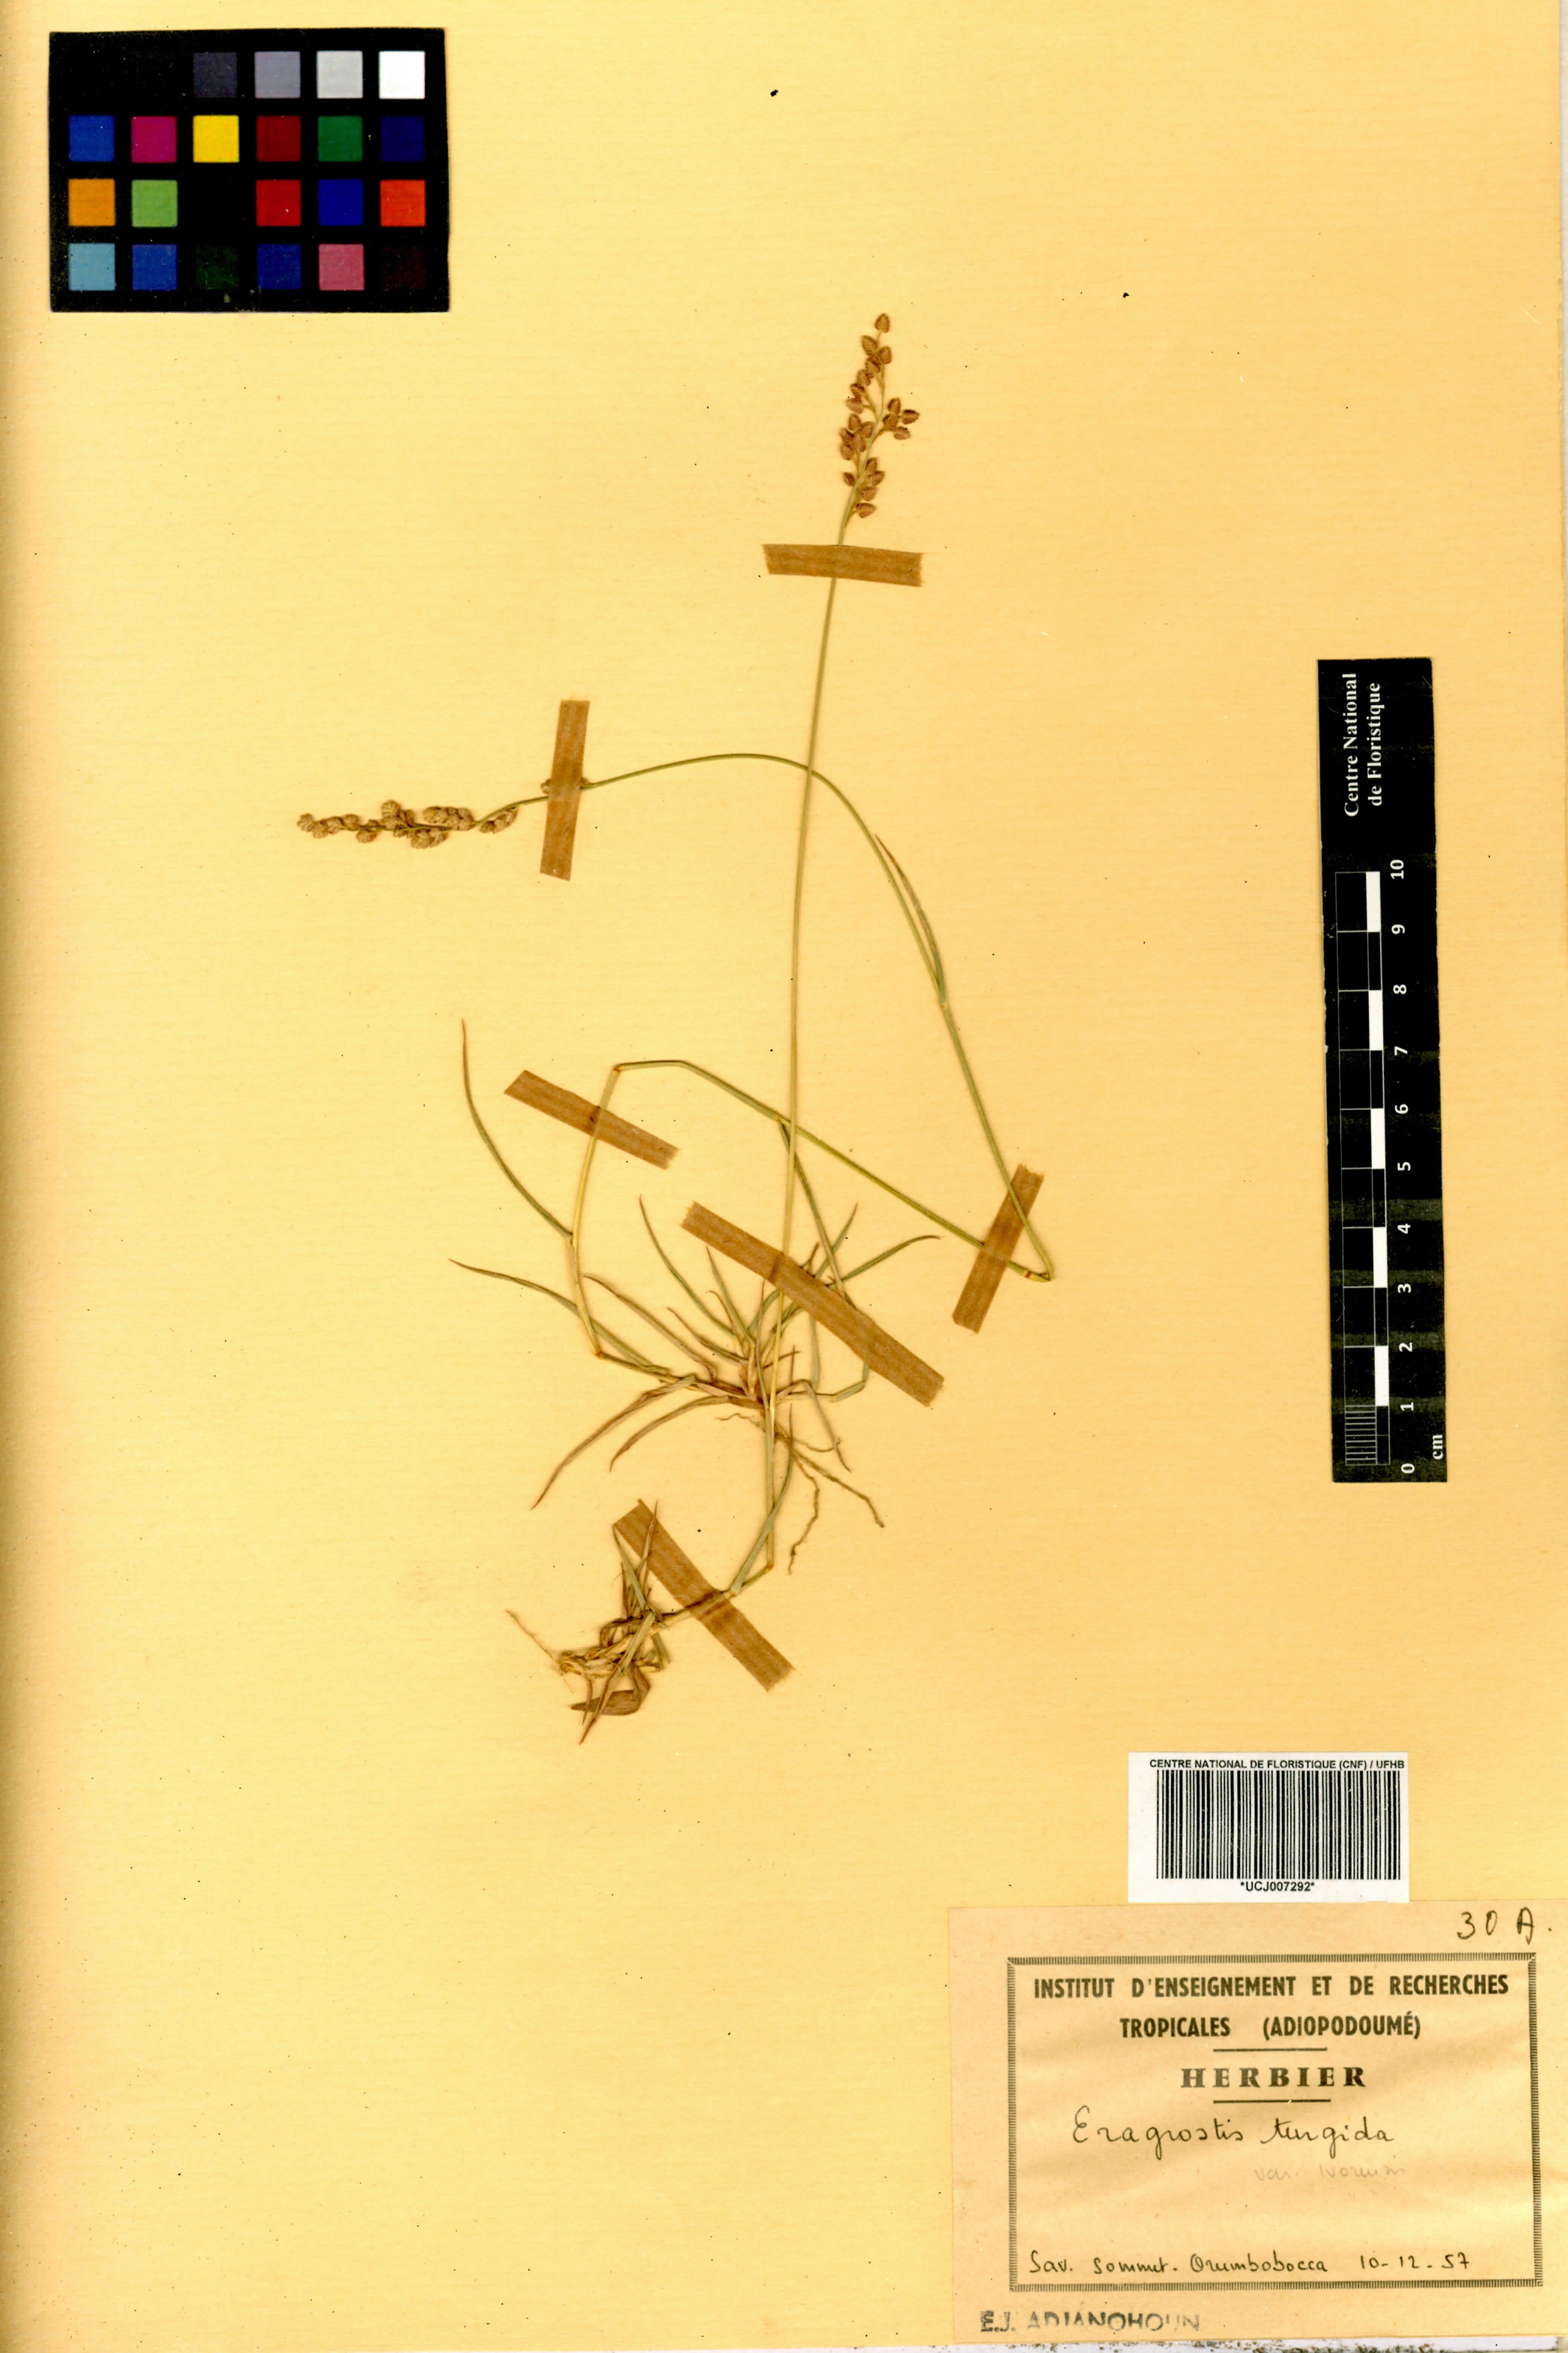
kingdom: Plantae
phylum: Tracheophyta
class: Liliopsida
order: Poales
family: Poaceae
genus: Eragrostis
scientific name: Eragrostis turgida
